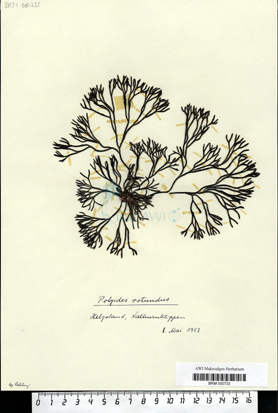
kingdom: Plantae
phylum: Rhodophyta
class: Florideophyceae
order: Gigartinales
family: Polyidaceae
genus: Polyides
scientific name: Polyides rotunda
